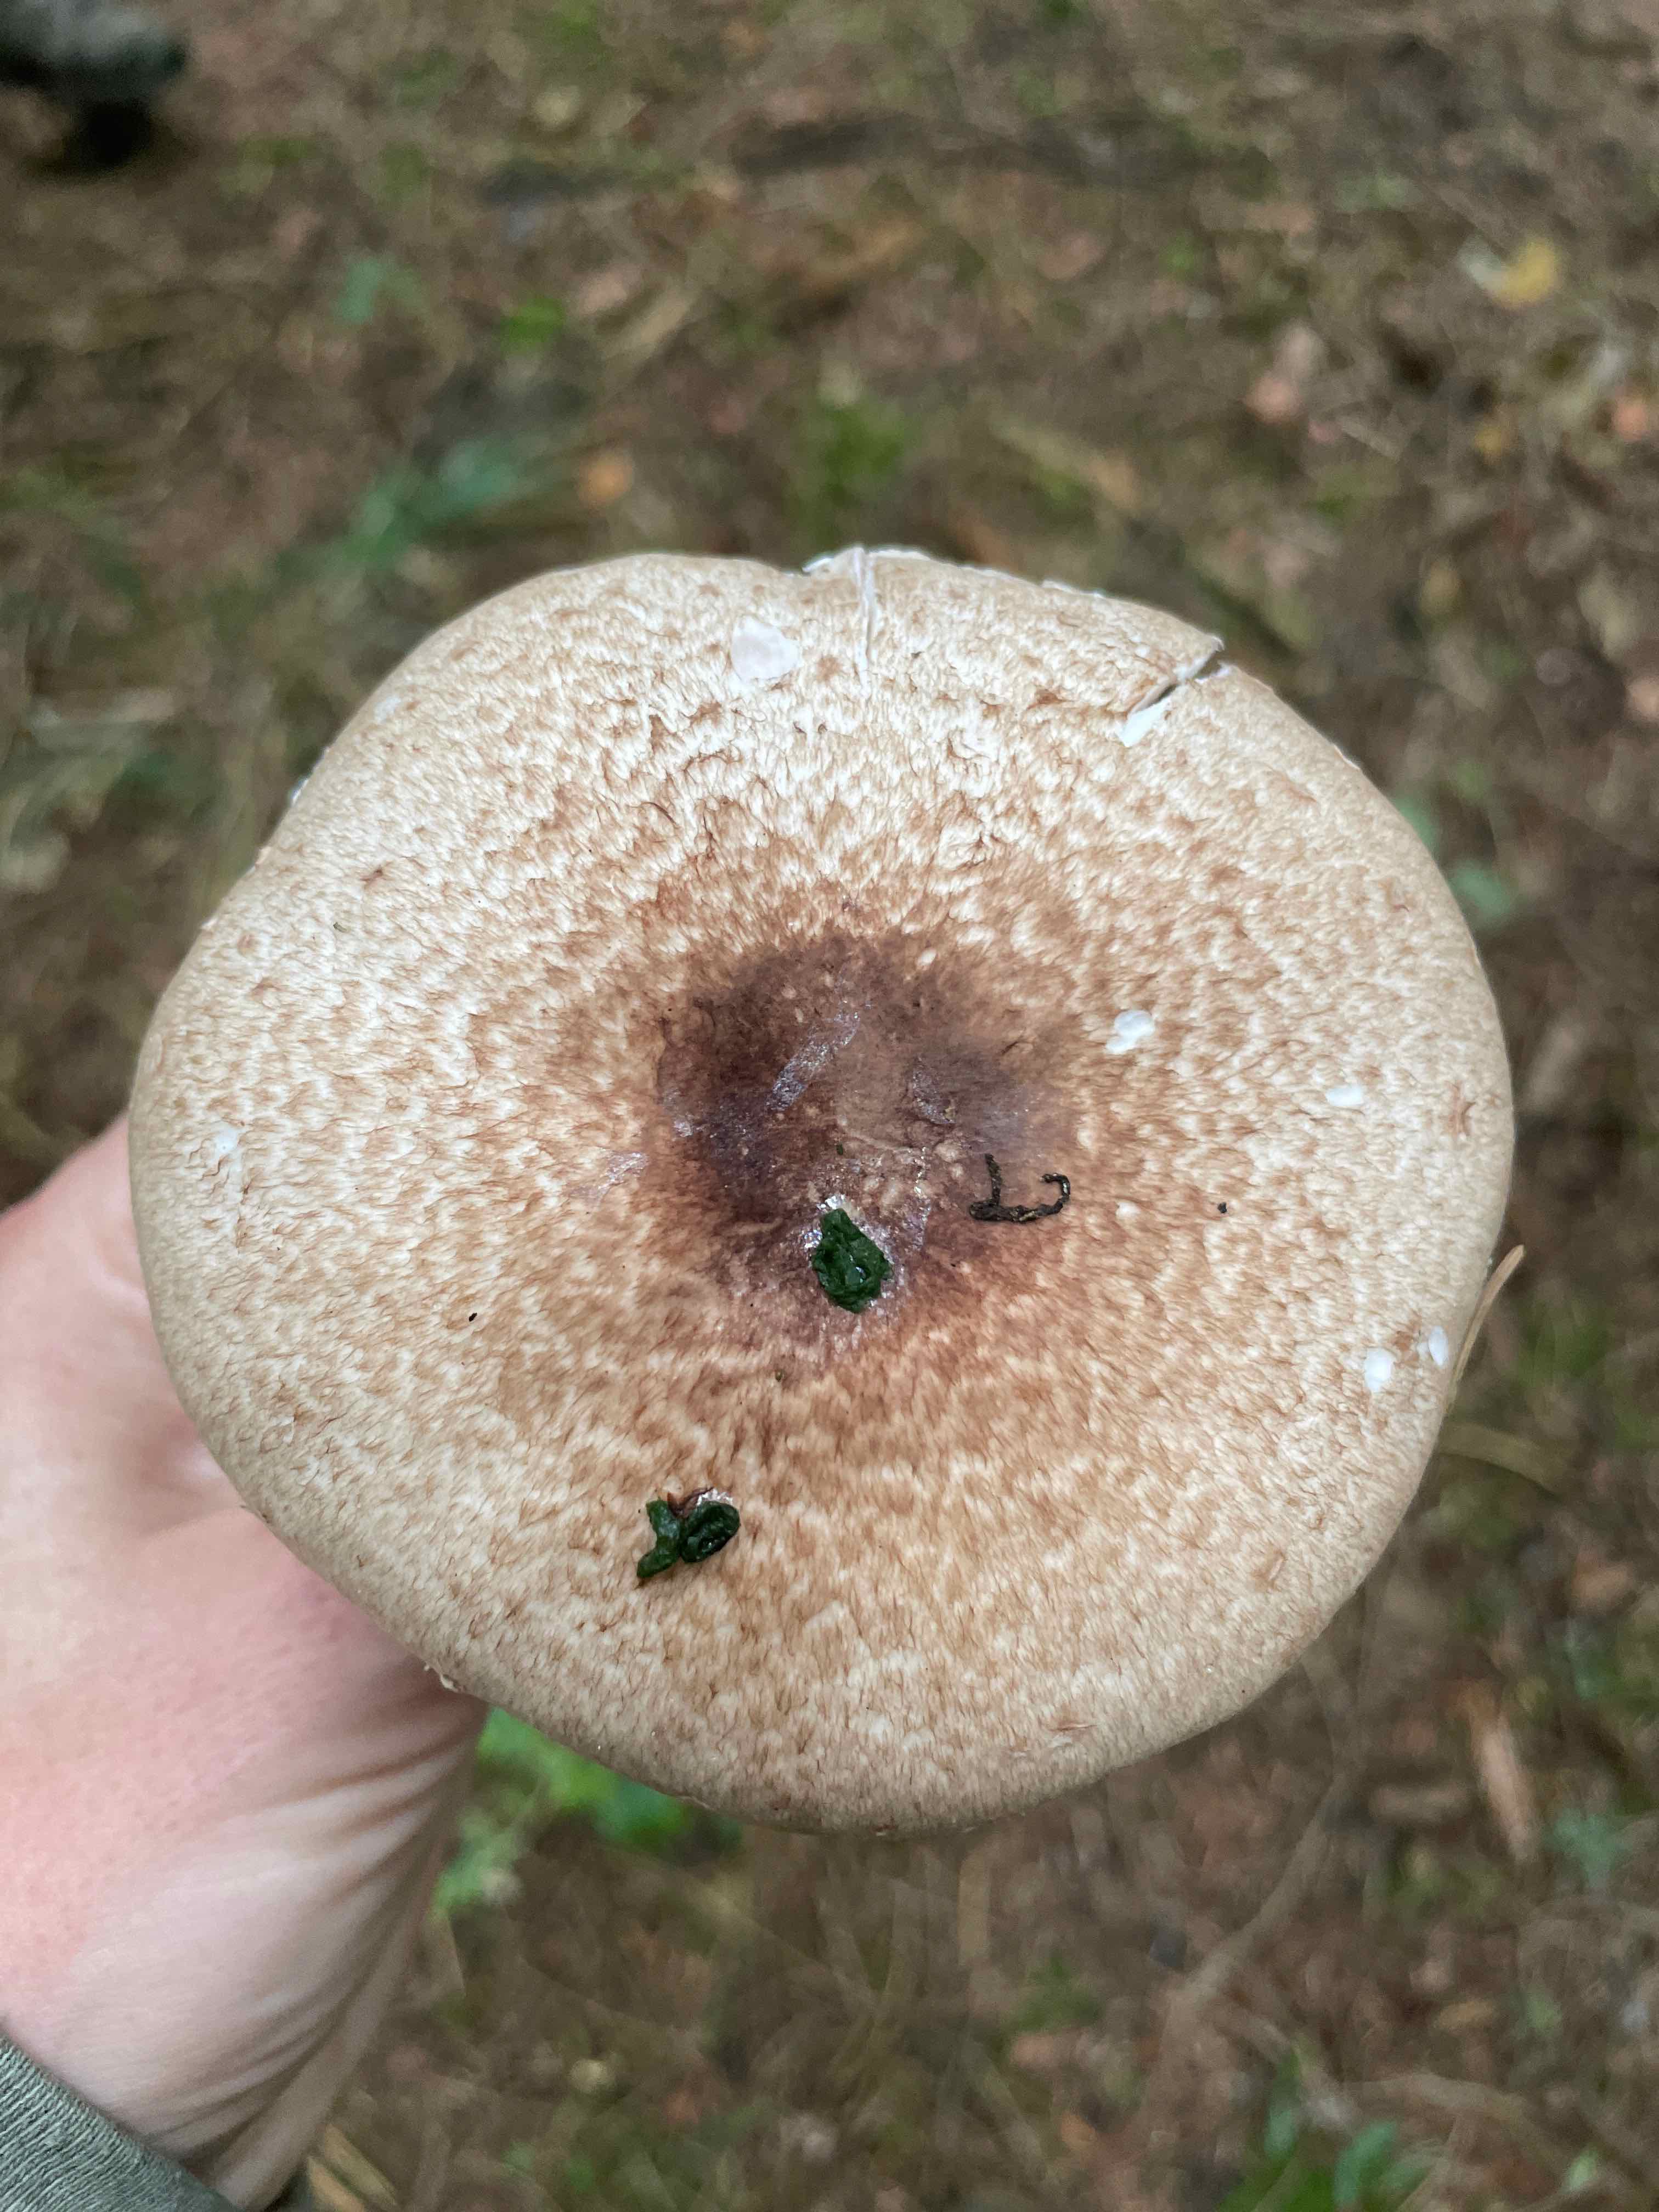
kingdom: Fungi
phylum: Basidiomycota
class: Agaricomycetes
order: Agaricales
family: Agaricaceae
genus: Agaricus
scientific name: Agaricus
